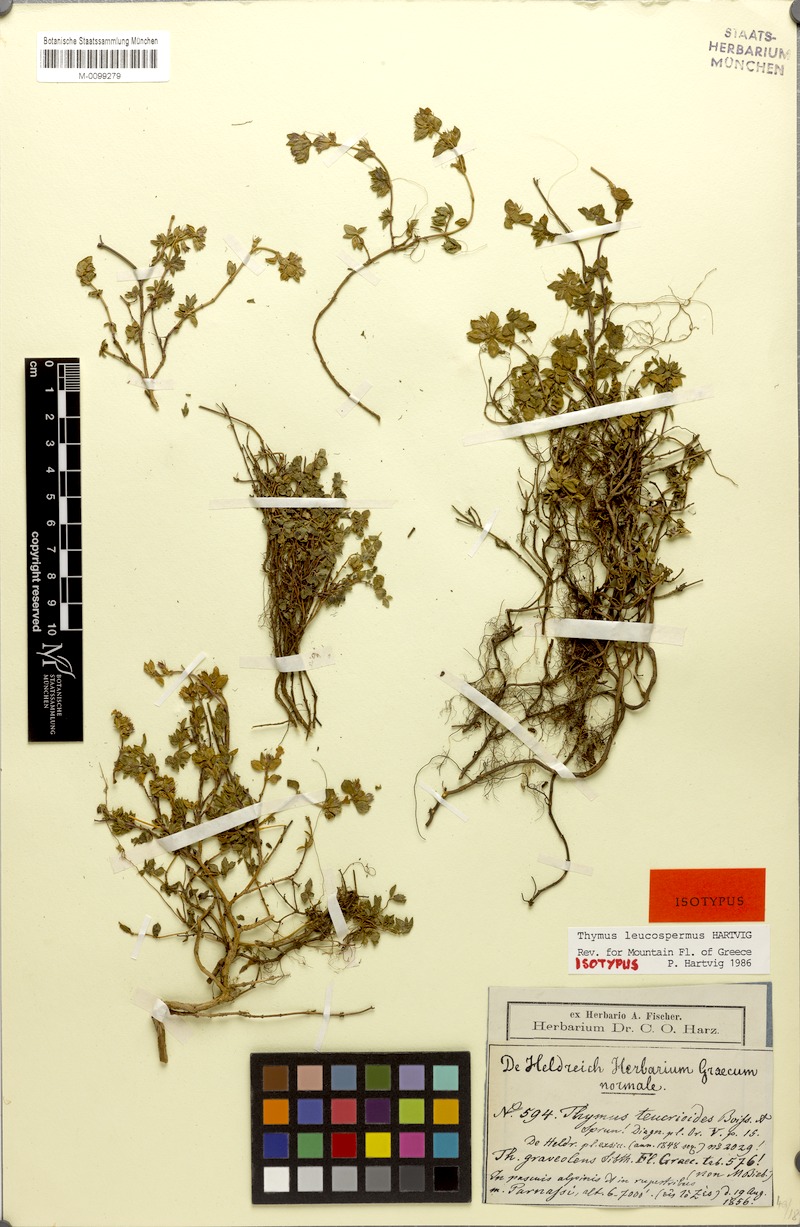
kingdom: Plantae
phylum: Tracheophyta
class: Magnoliopsida
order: Lamiales
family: Lamiaceae
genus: Thymus
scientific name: Thymus leucospermus
